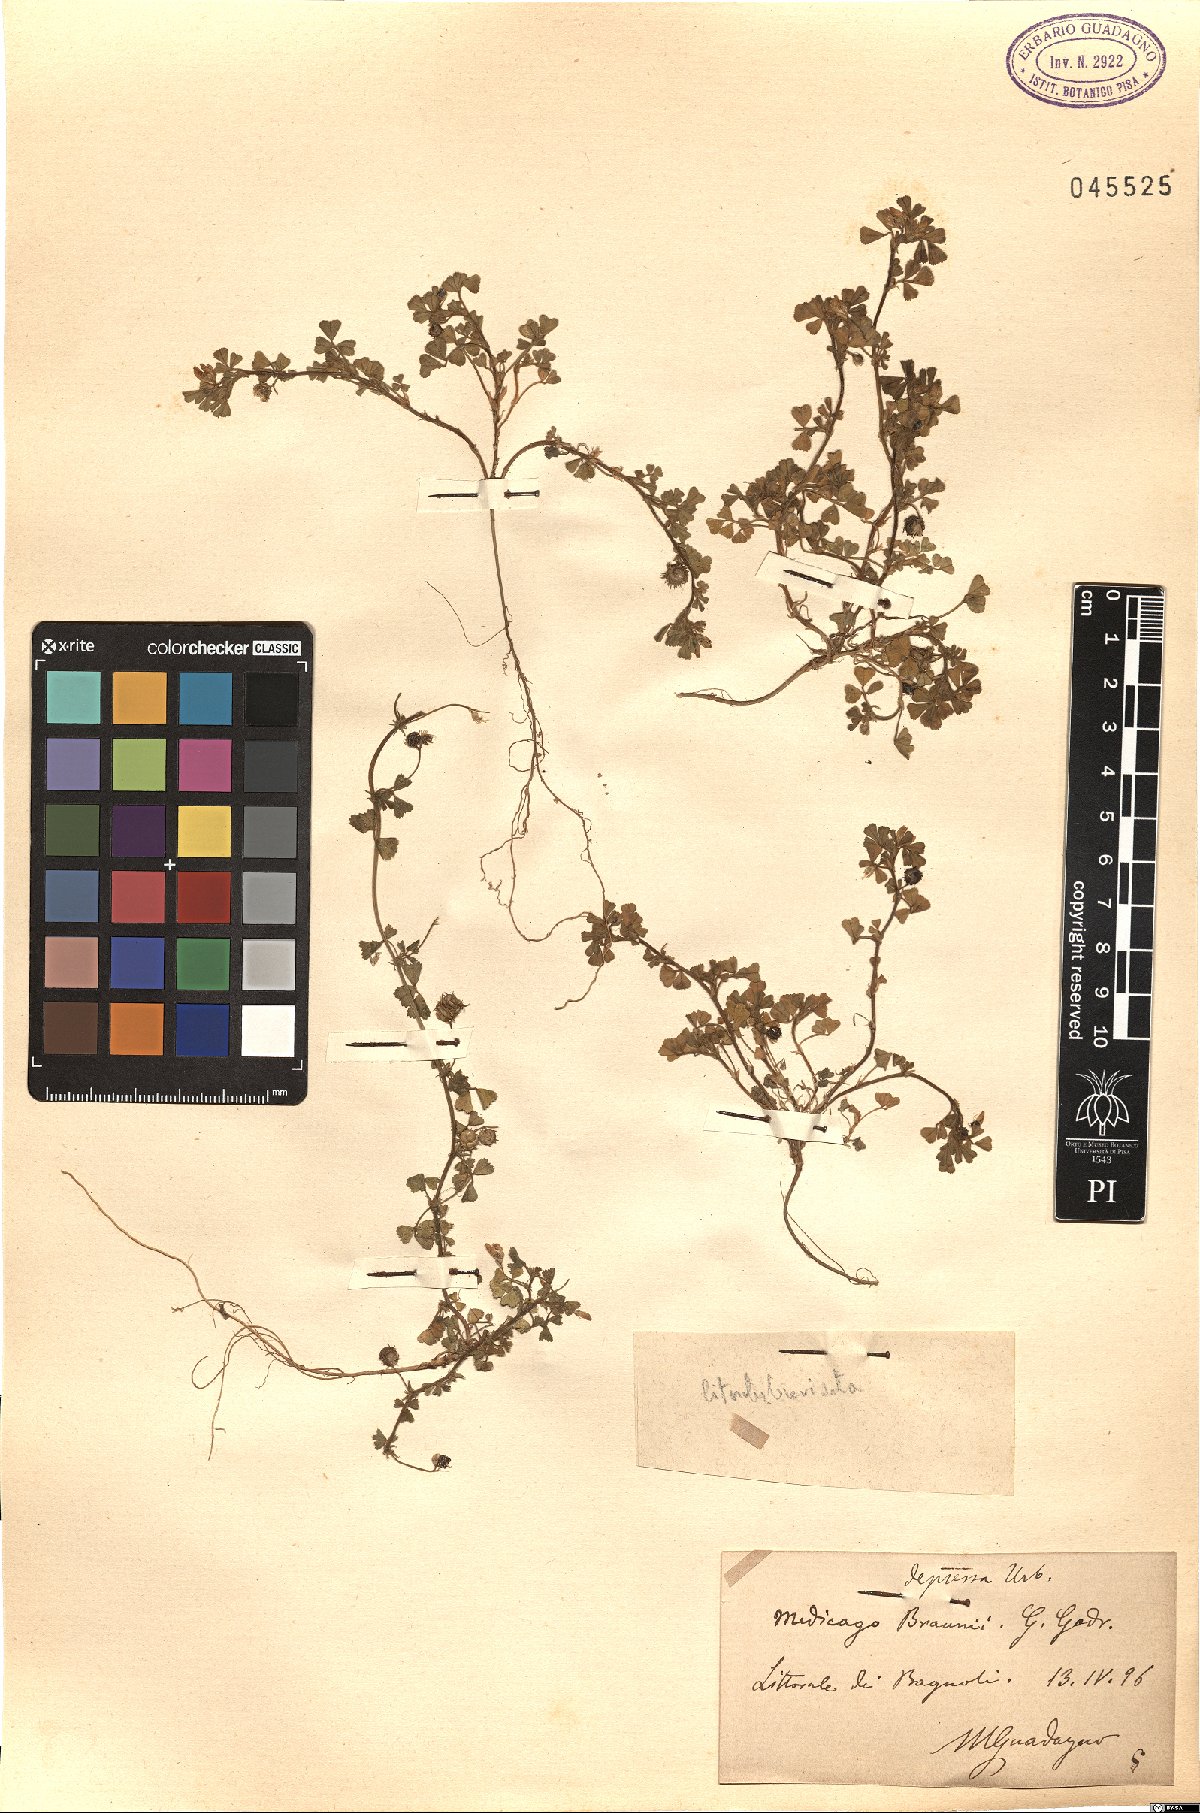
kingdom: Plantae
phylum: Tracheophyta
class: Magnoliopsida
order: Fabales
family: Fabaceae
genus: Medicago
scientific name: Medicago rigidula
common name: Tifton medic
